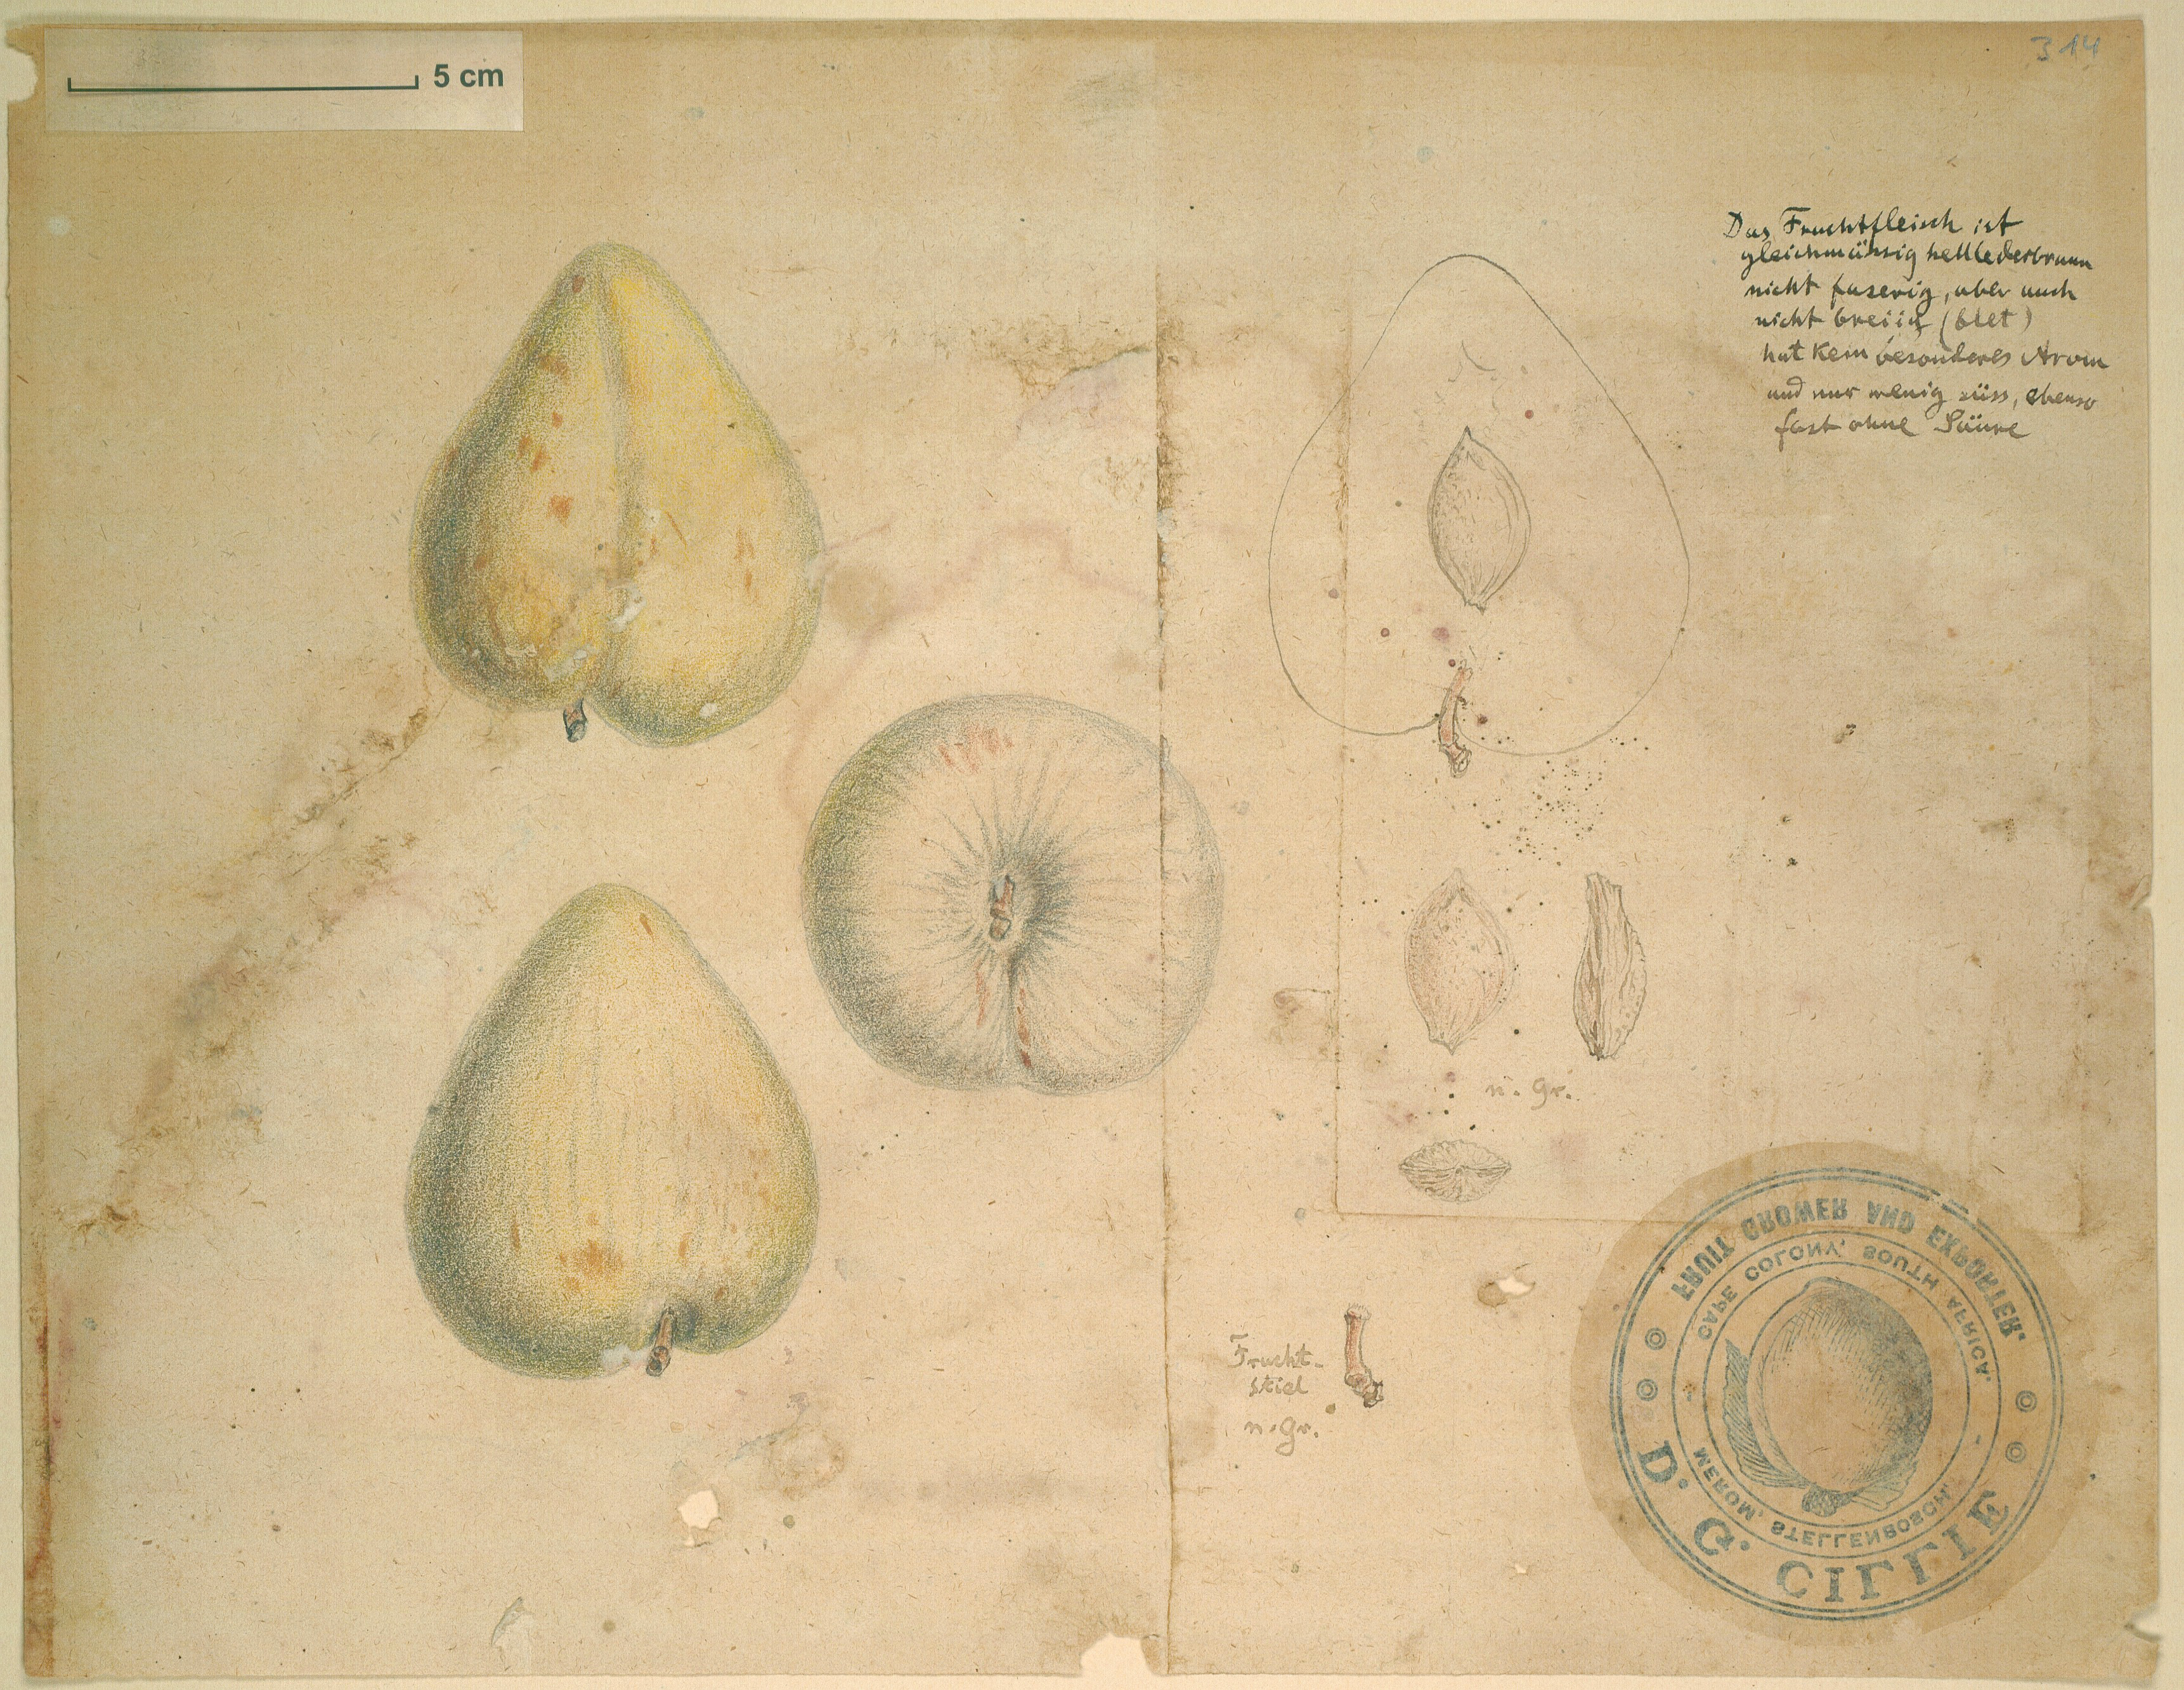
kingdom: Plantae
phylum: Tracheophyta
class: Magnoliopsida
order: Rosales
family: Rosaceae
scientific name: Rosaceae
